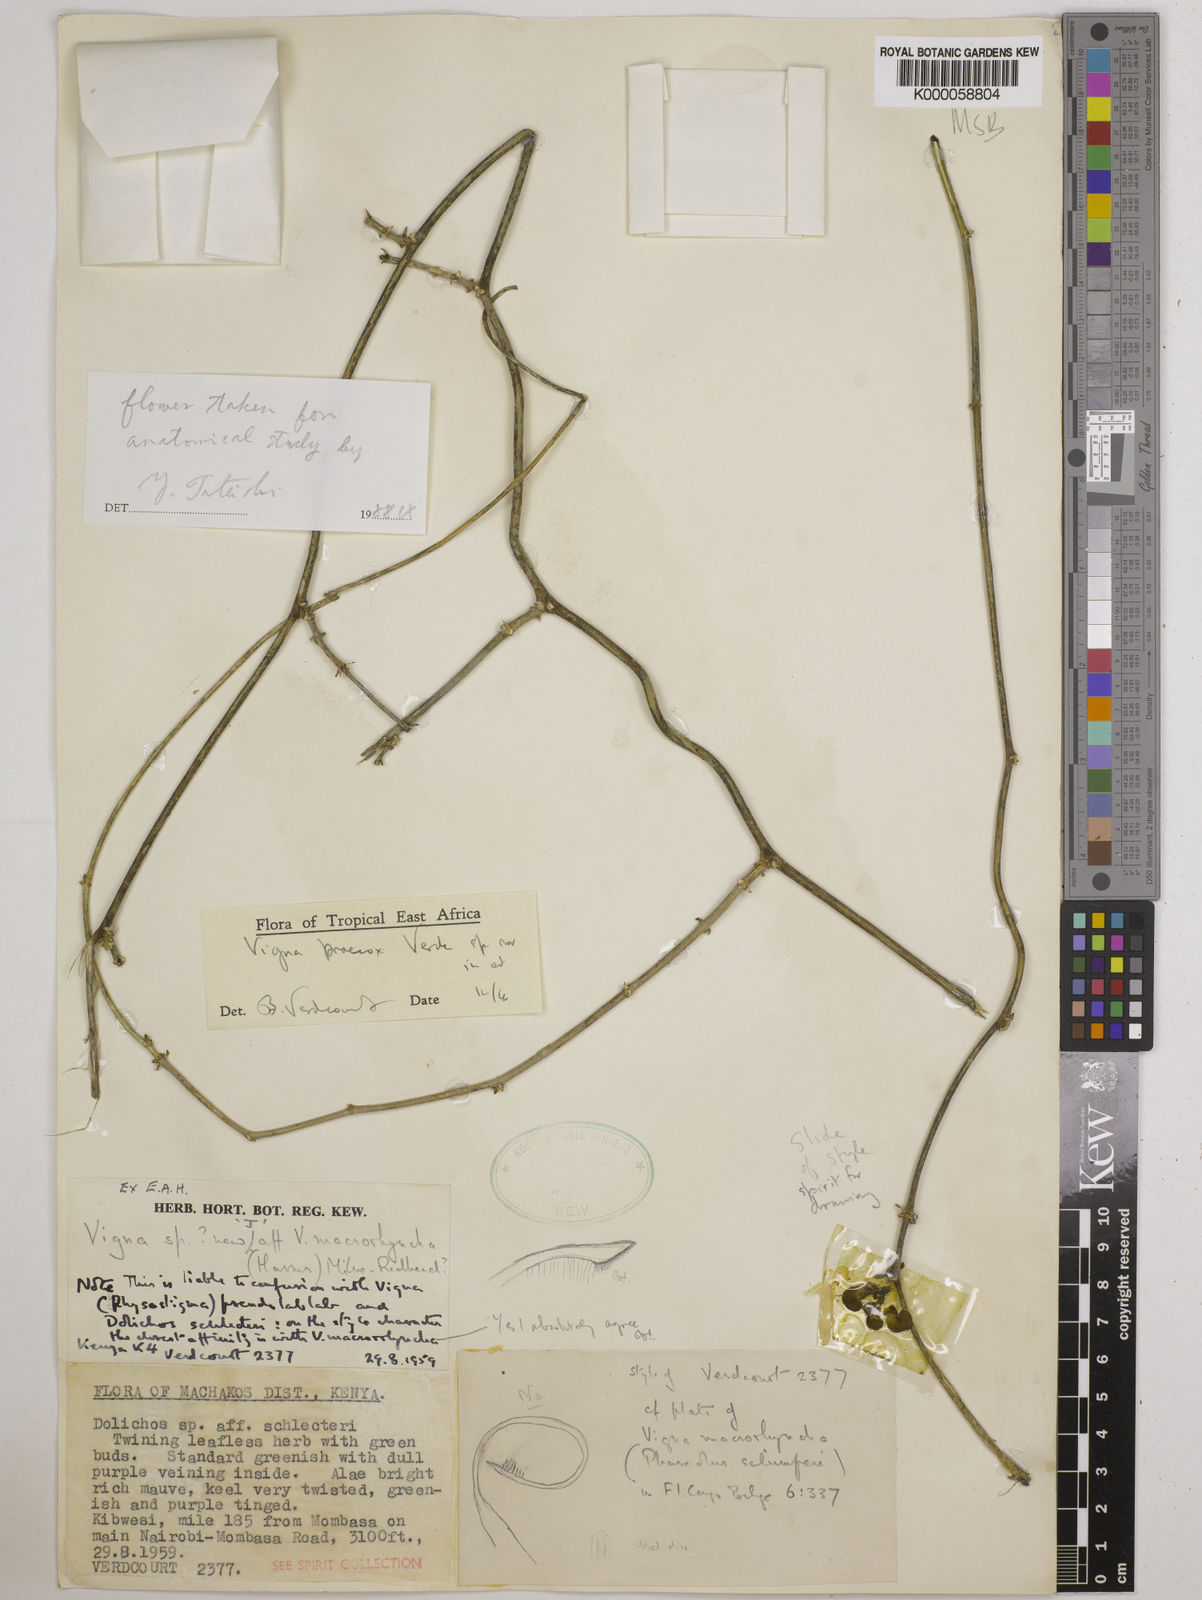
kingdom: Plantae
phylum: Tracheophyta
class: Magnoliopsida
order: Fabales
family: Fabaceae
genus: Wajira
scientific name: Wajira praecox
